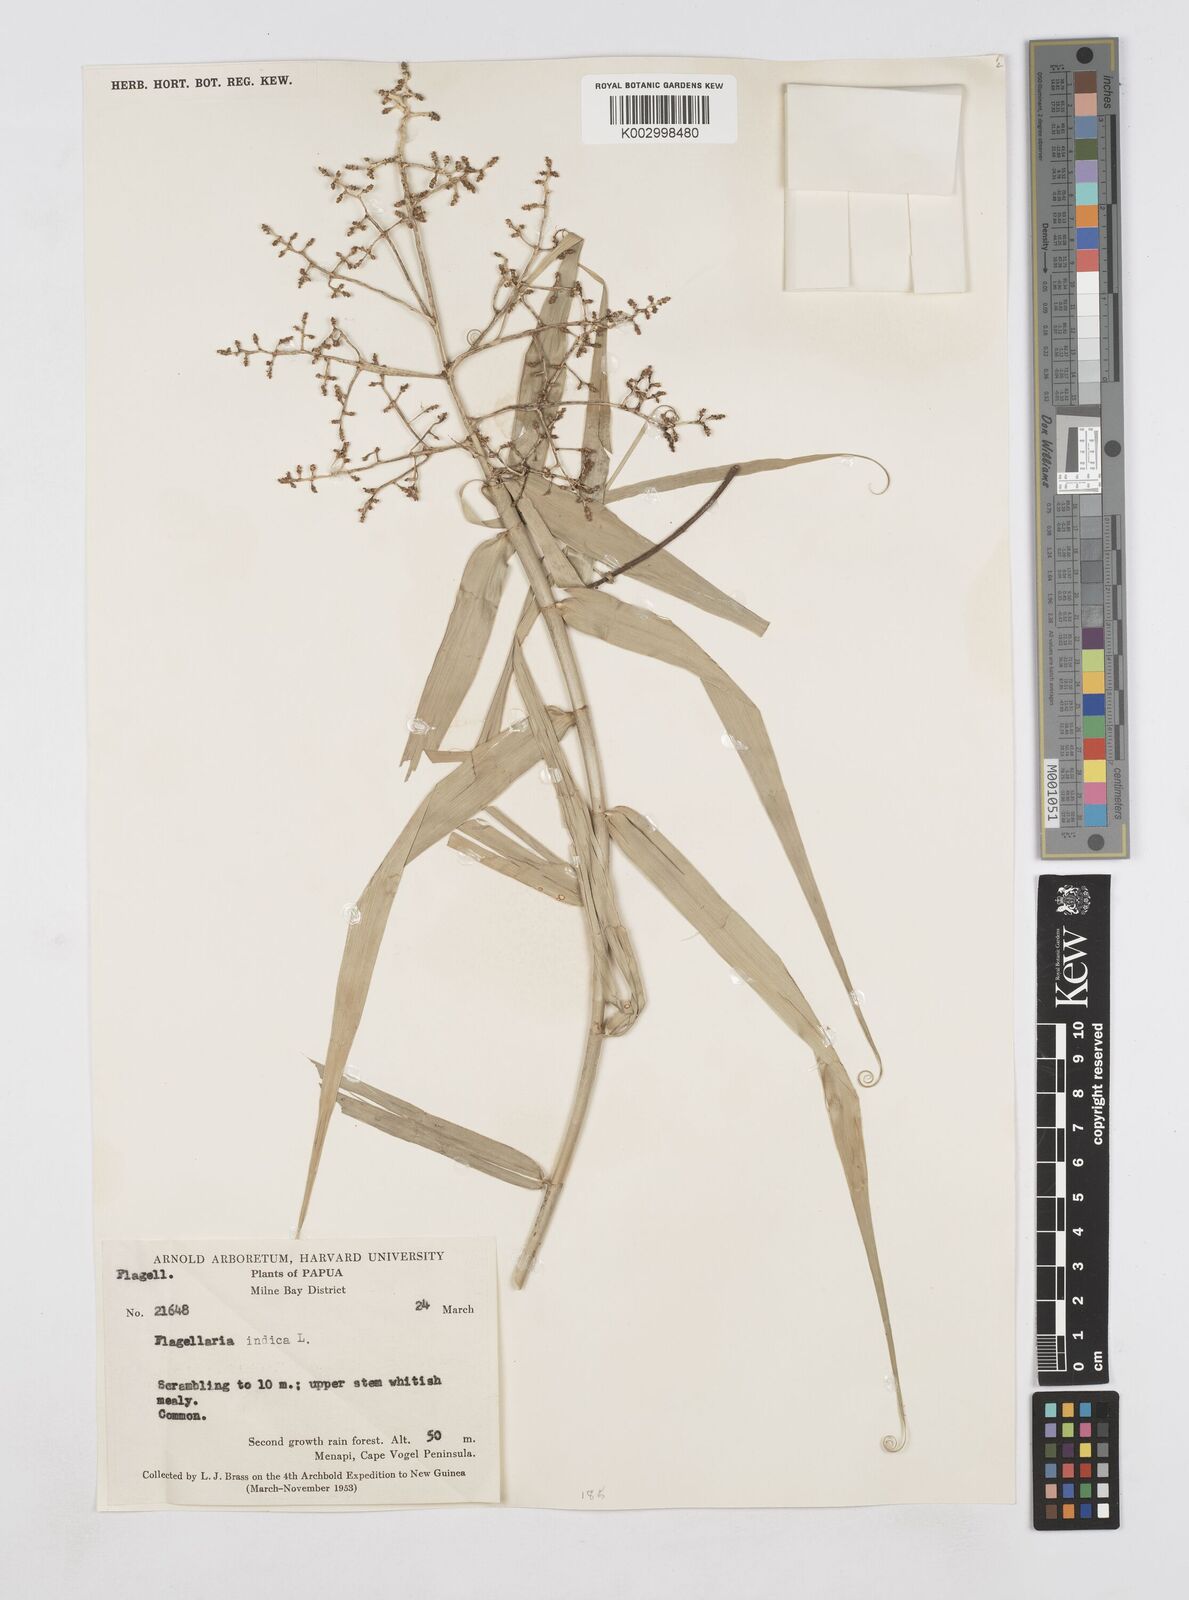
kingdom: Plantae
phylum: Tracheophyta
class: Liliopsida
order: Poales
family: Flagellariaceae
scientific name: Flagellariaceae
